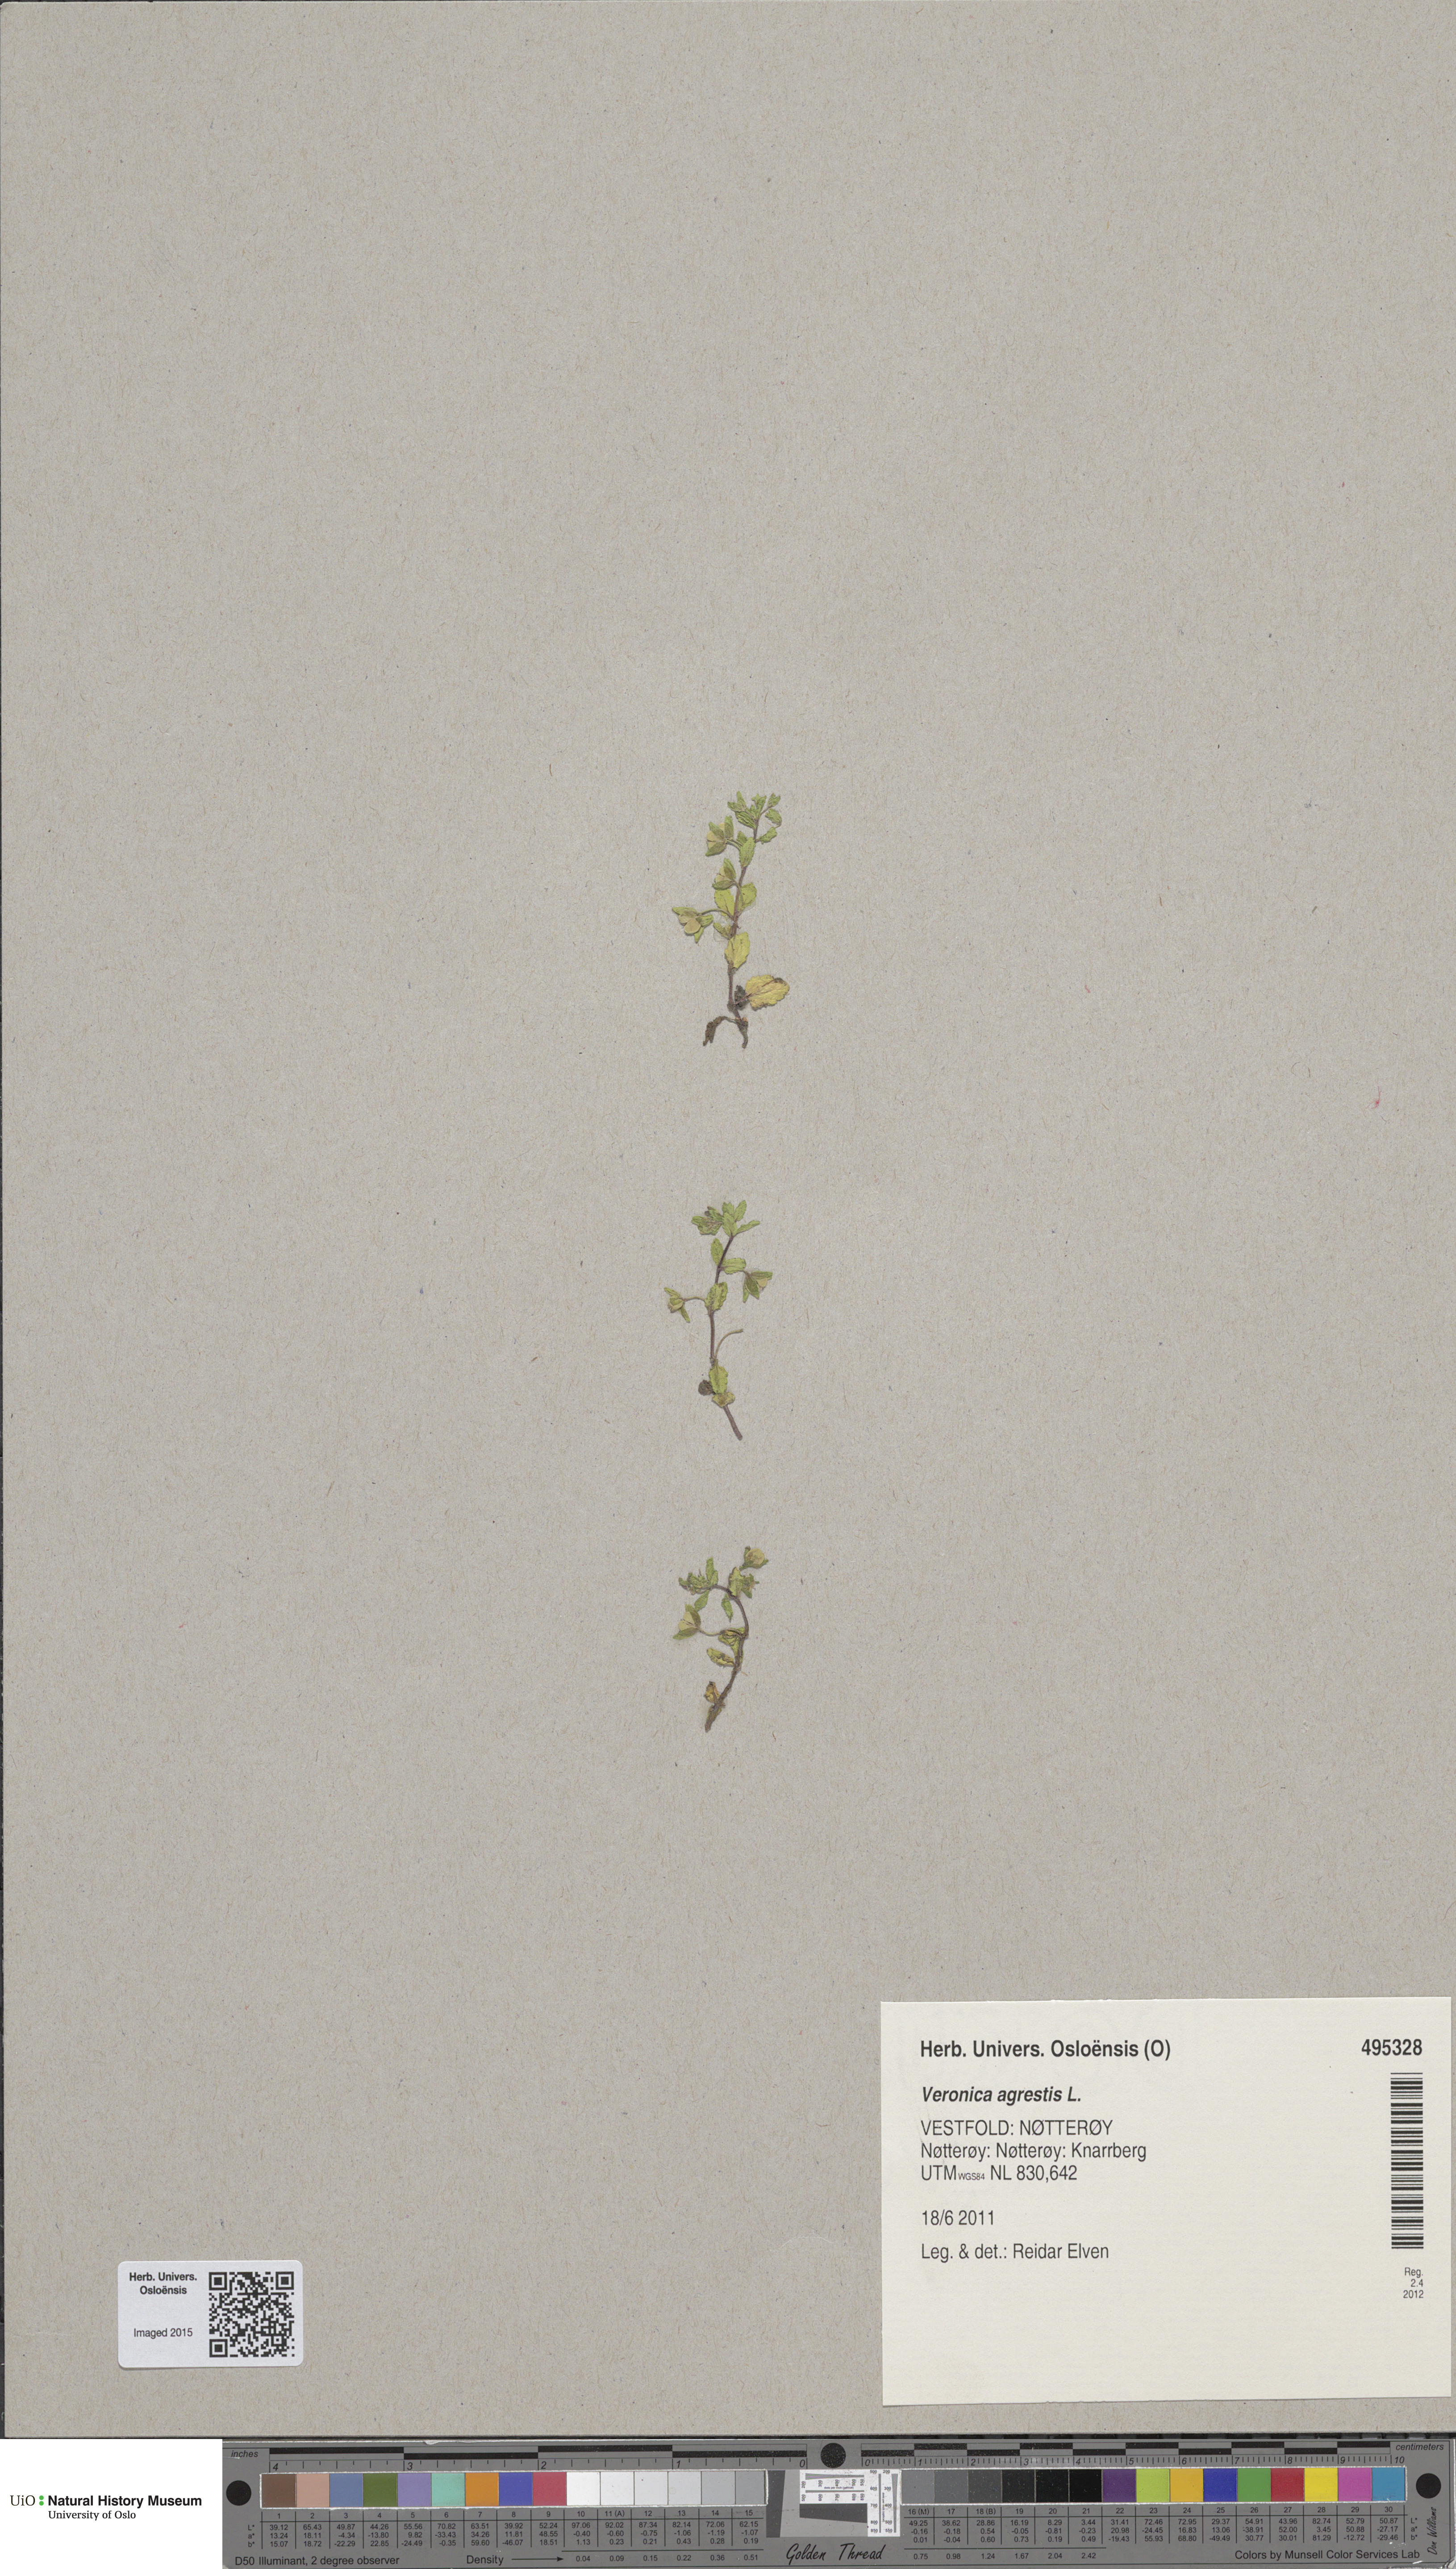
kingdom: Plantae
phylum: Tracheophyta
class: Magnoliopsida
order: Lamiales
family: Plantaginaceae
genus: Veronica
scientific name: Veronica agrestis
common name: Green field-speedwell
